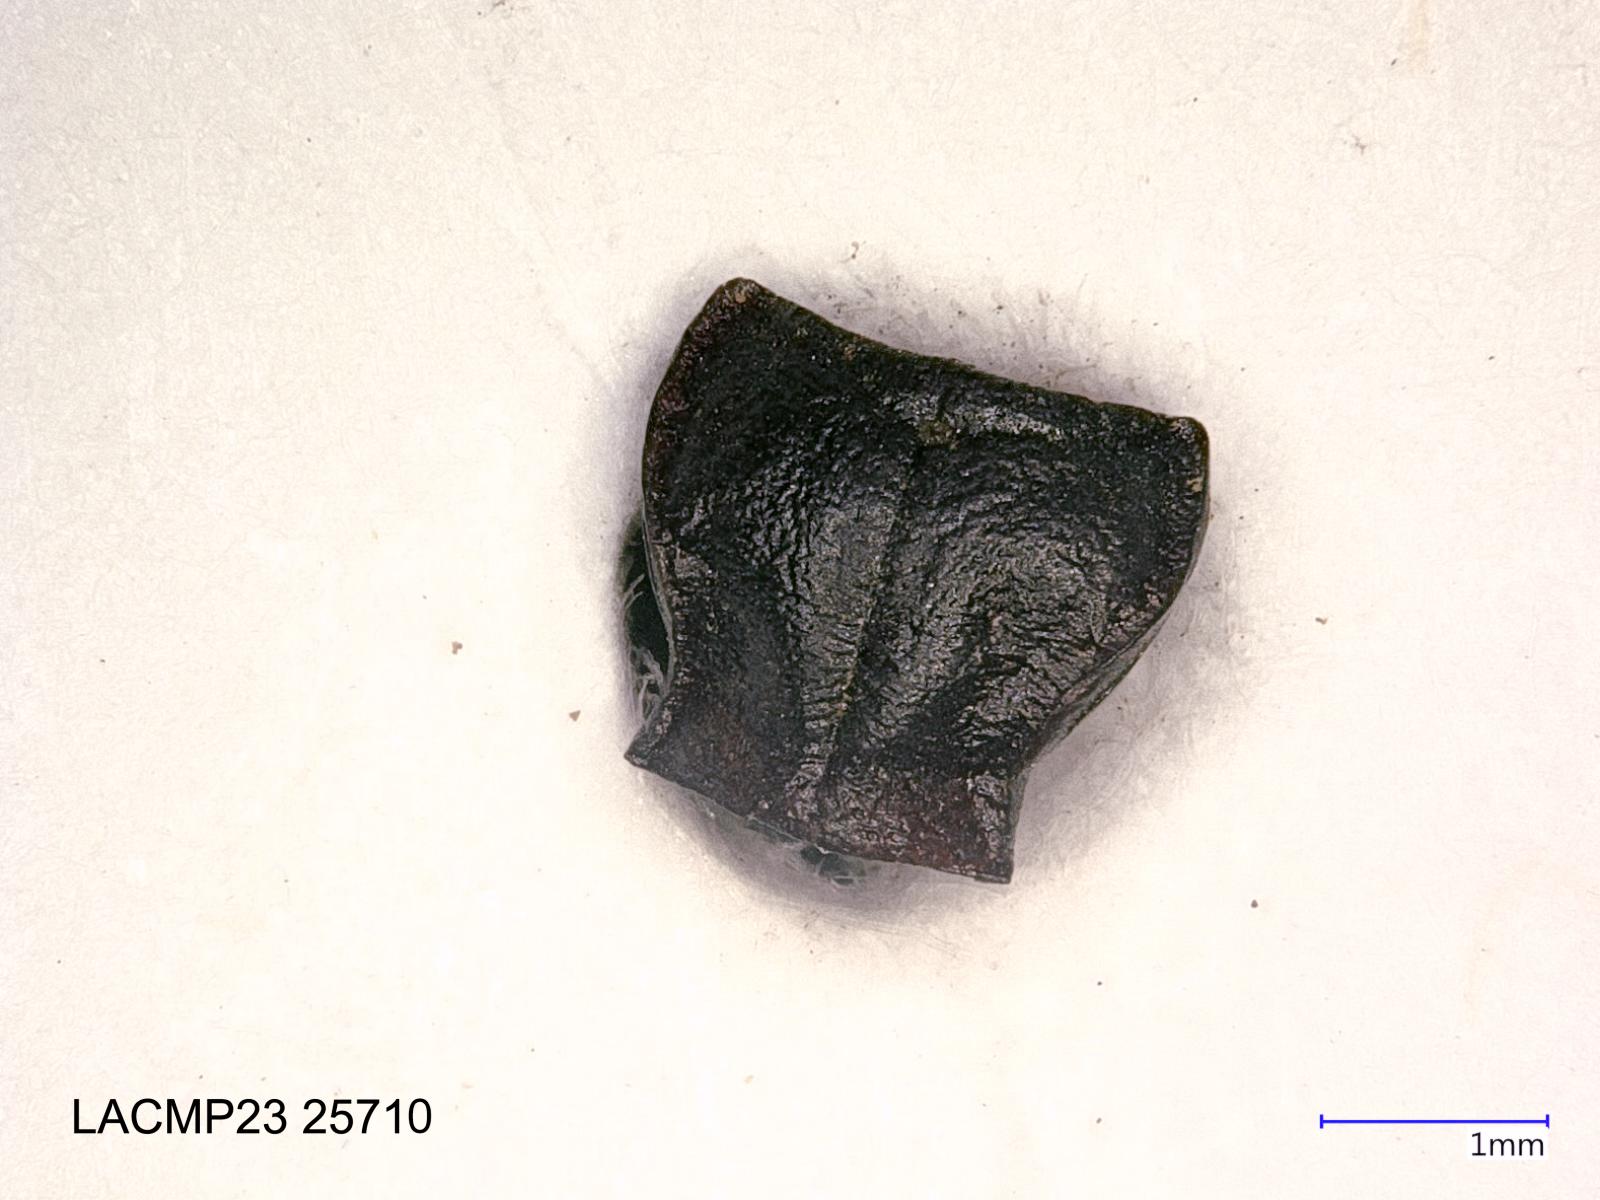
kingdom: Animalia
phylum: Arthropoda
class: Insecta
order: Coleoptera
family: Carabidae
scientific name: Carabidae
